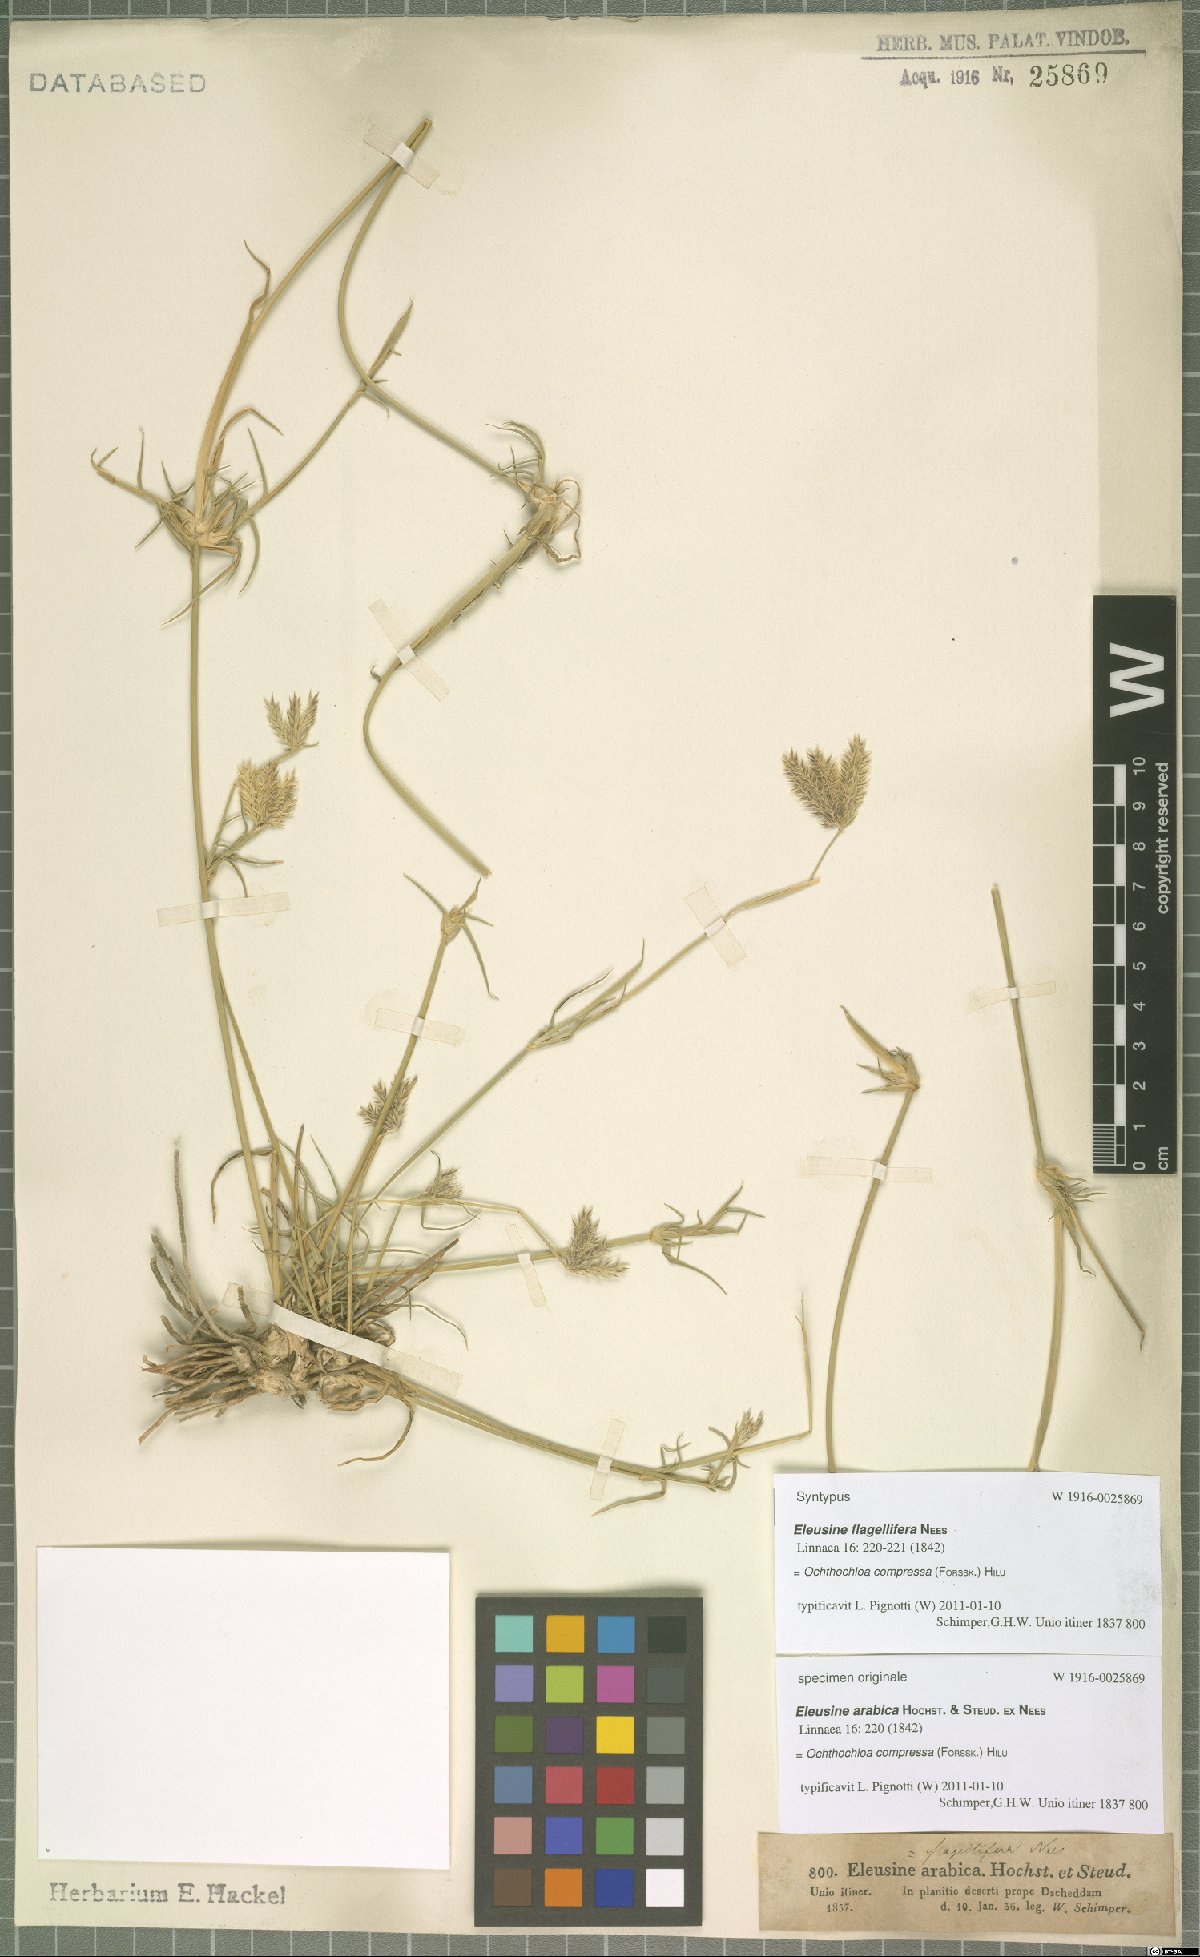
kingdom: Plantae
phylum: Tracheophyta
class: Liliopsida
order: Poales
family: Poaceae
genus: Chloris
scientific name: Chloris flagellifera
